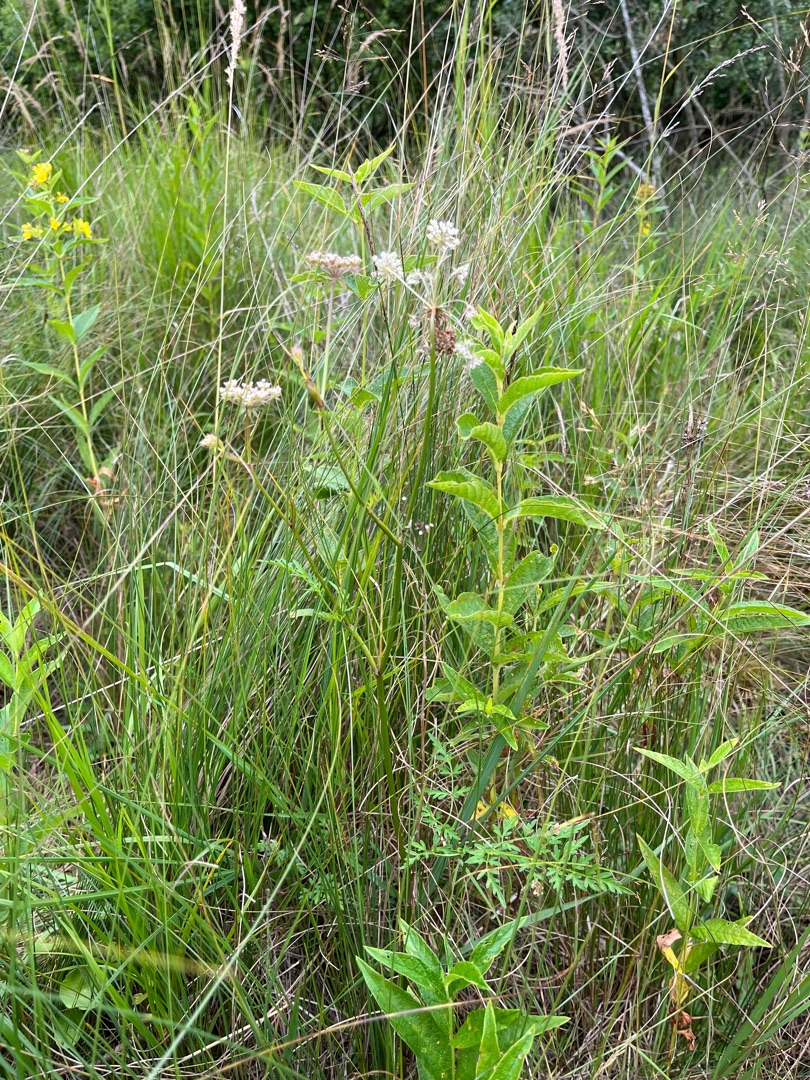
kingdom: Plantae
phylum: Tracheophyta
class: Magnoliopsida
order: Ericales
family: Primulaceae
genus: Lysimachia
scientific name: Lysimachia vulgaris
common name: Almindelig fredløs
